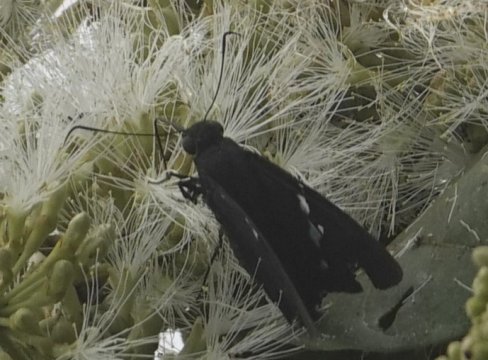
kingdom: Animalia
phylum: Arthropoda
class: Insecta
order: Lepidoptera
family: Hesperiidae
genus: Narcosius
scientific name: Narcosius
